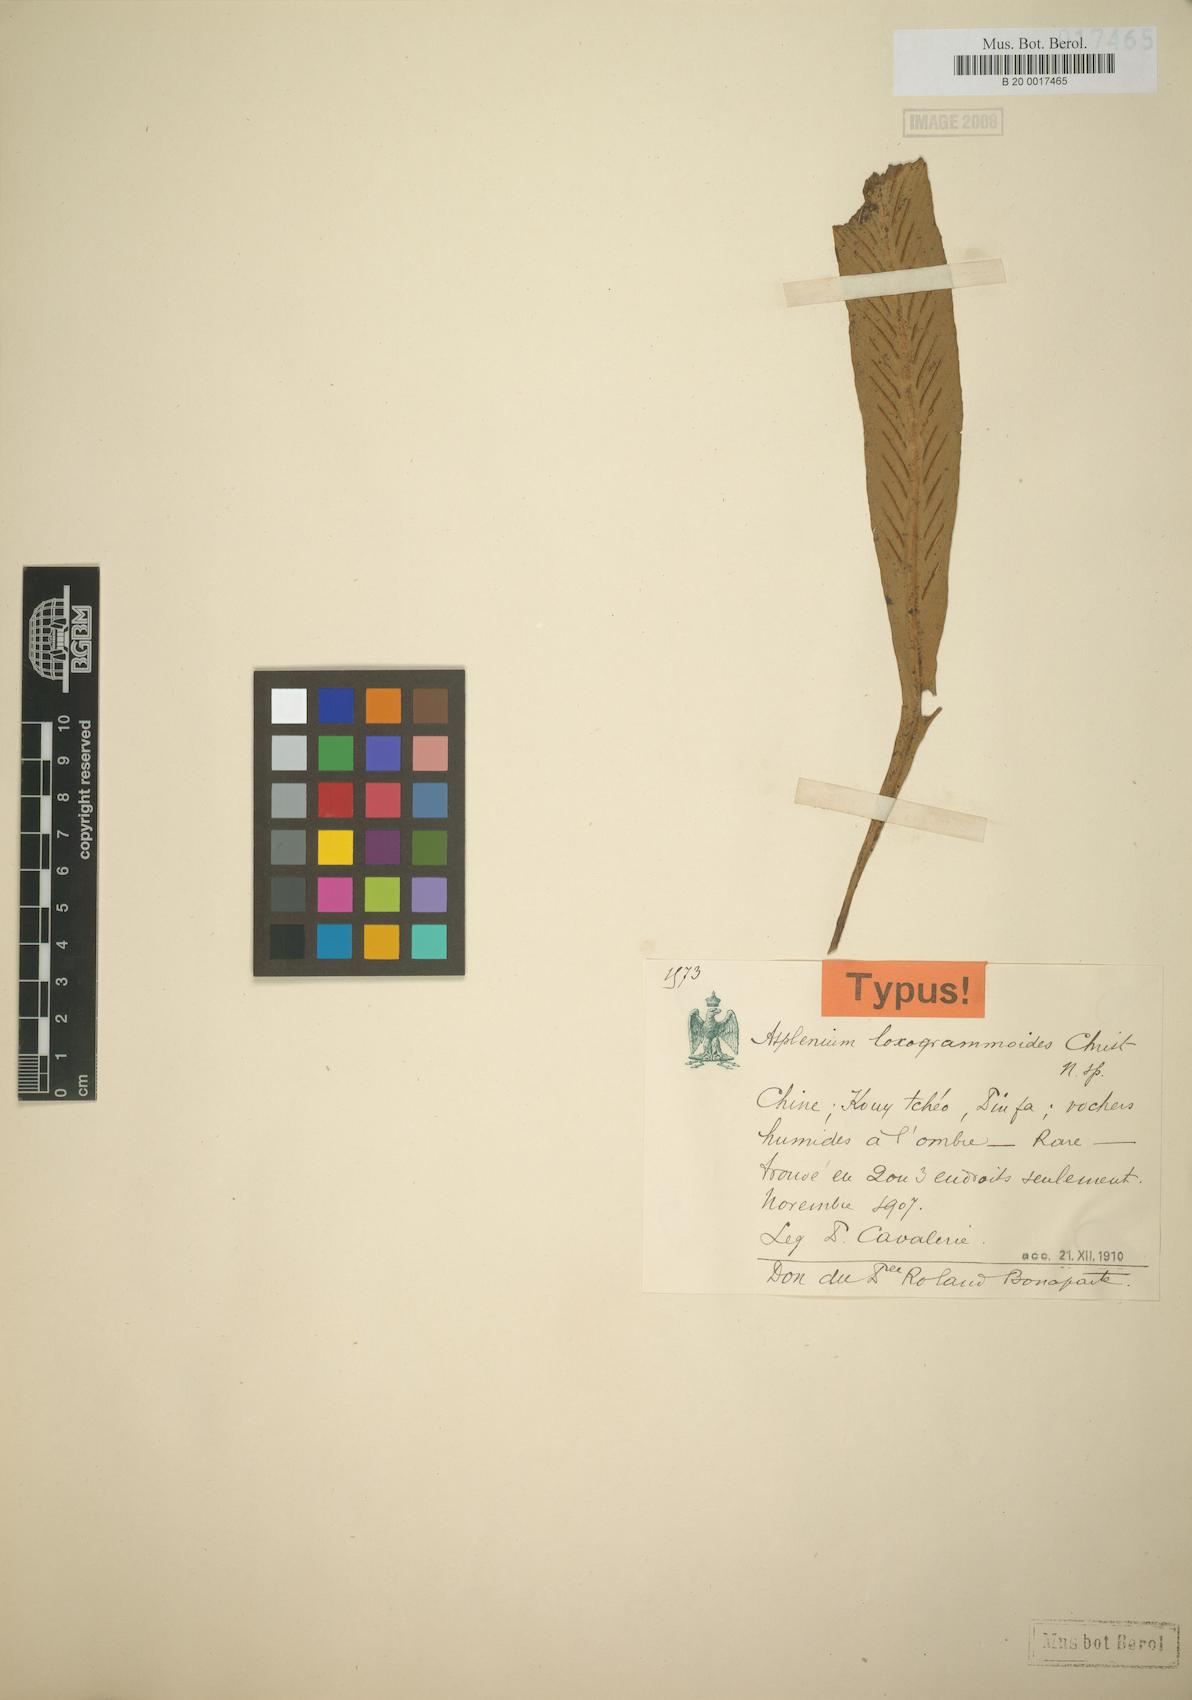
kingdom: Plantae
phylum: Tracheophyta
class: Polypodiopsida
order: Polypodiales
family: Aspleniaceae
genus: Asplenium
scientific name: Asplenium holosorum
